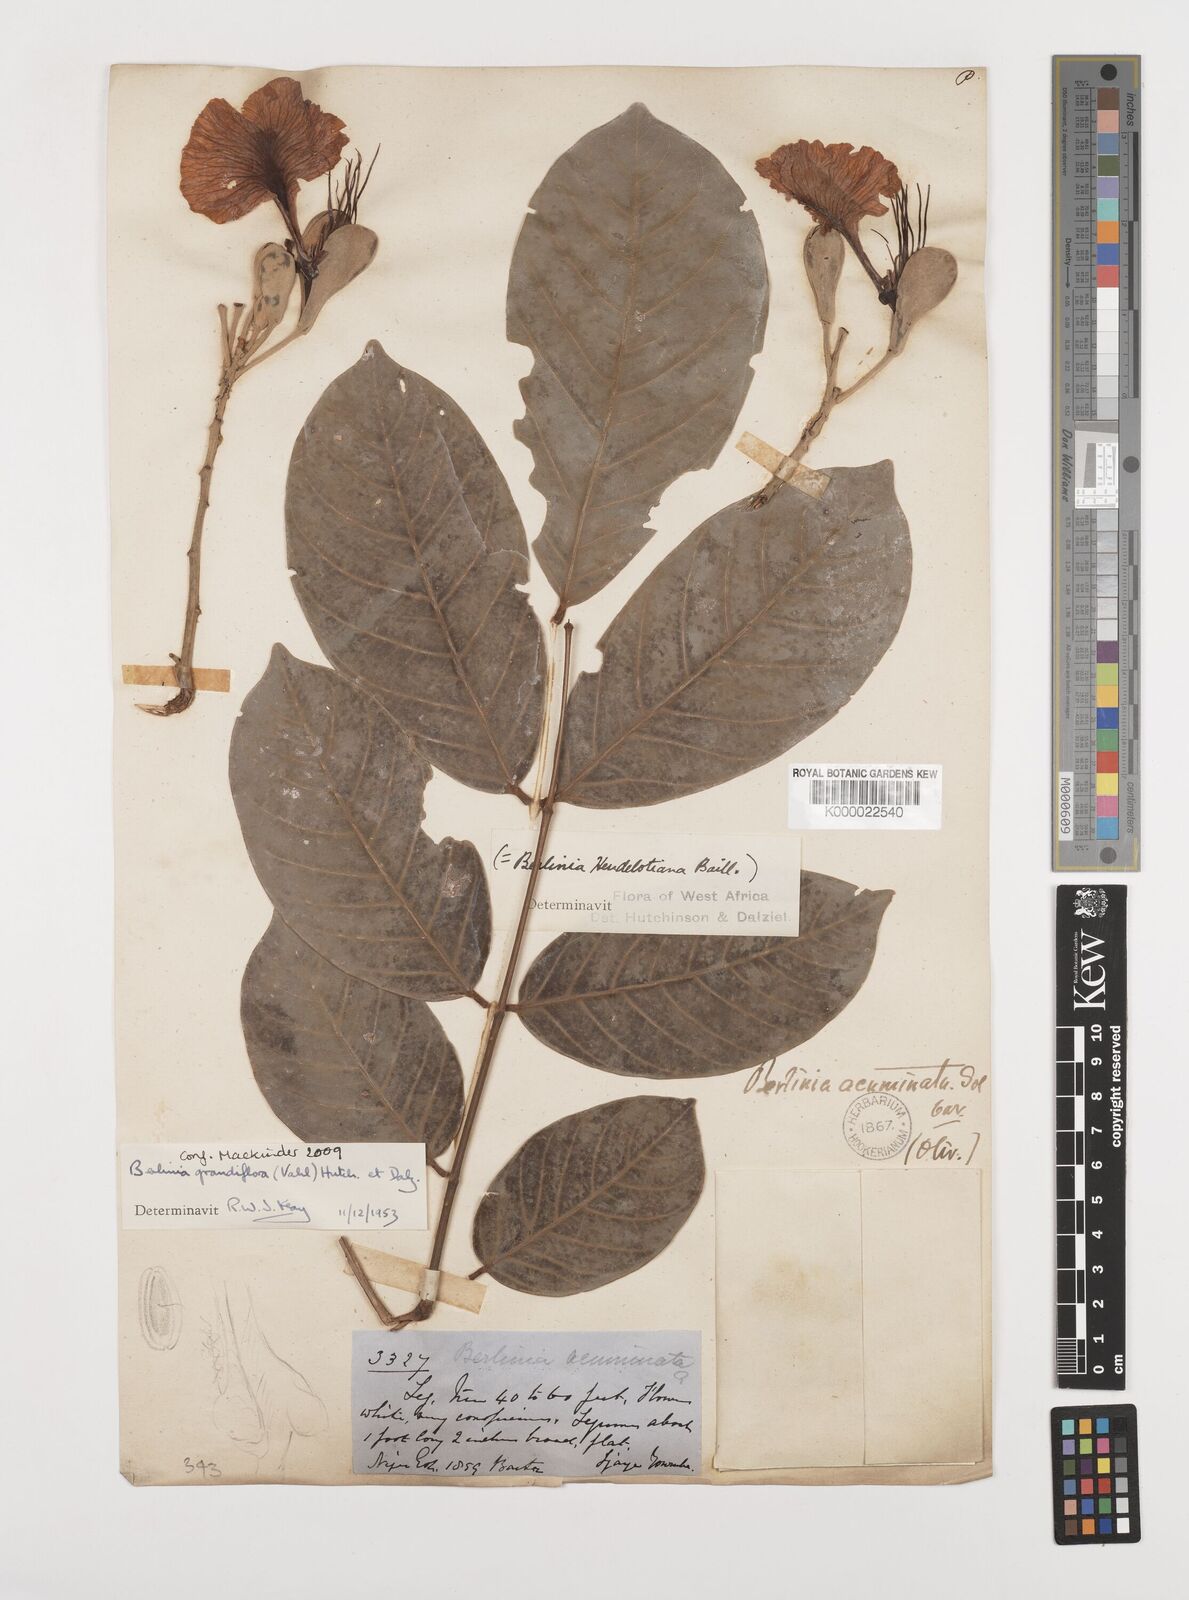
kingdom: Plantae
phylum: Tracheophyta
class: Magnoliopsida
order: Fabales
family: Fabaceae
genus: Berlinia
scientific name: Berlinia grandiflora
